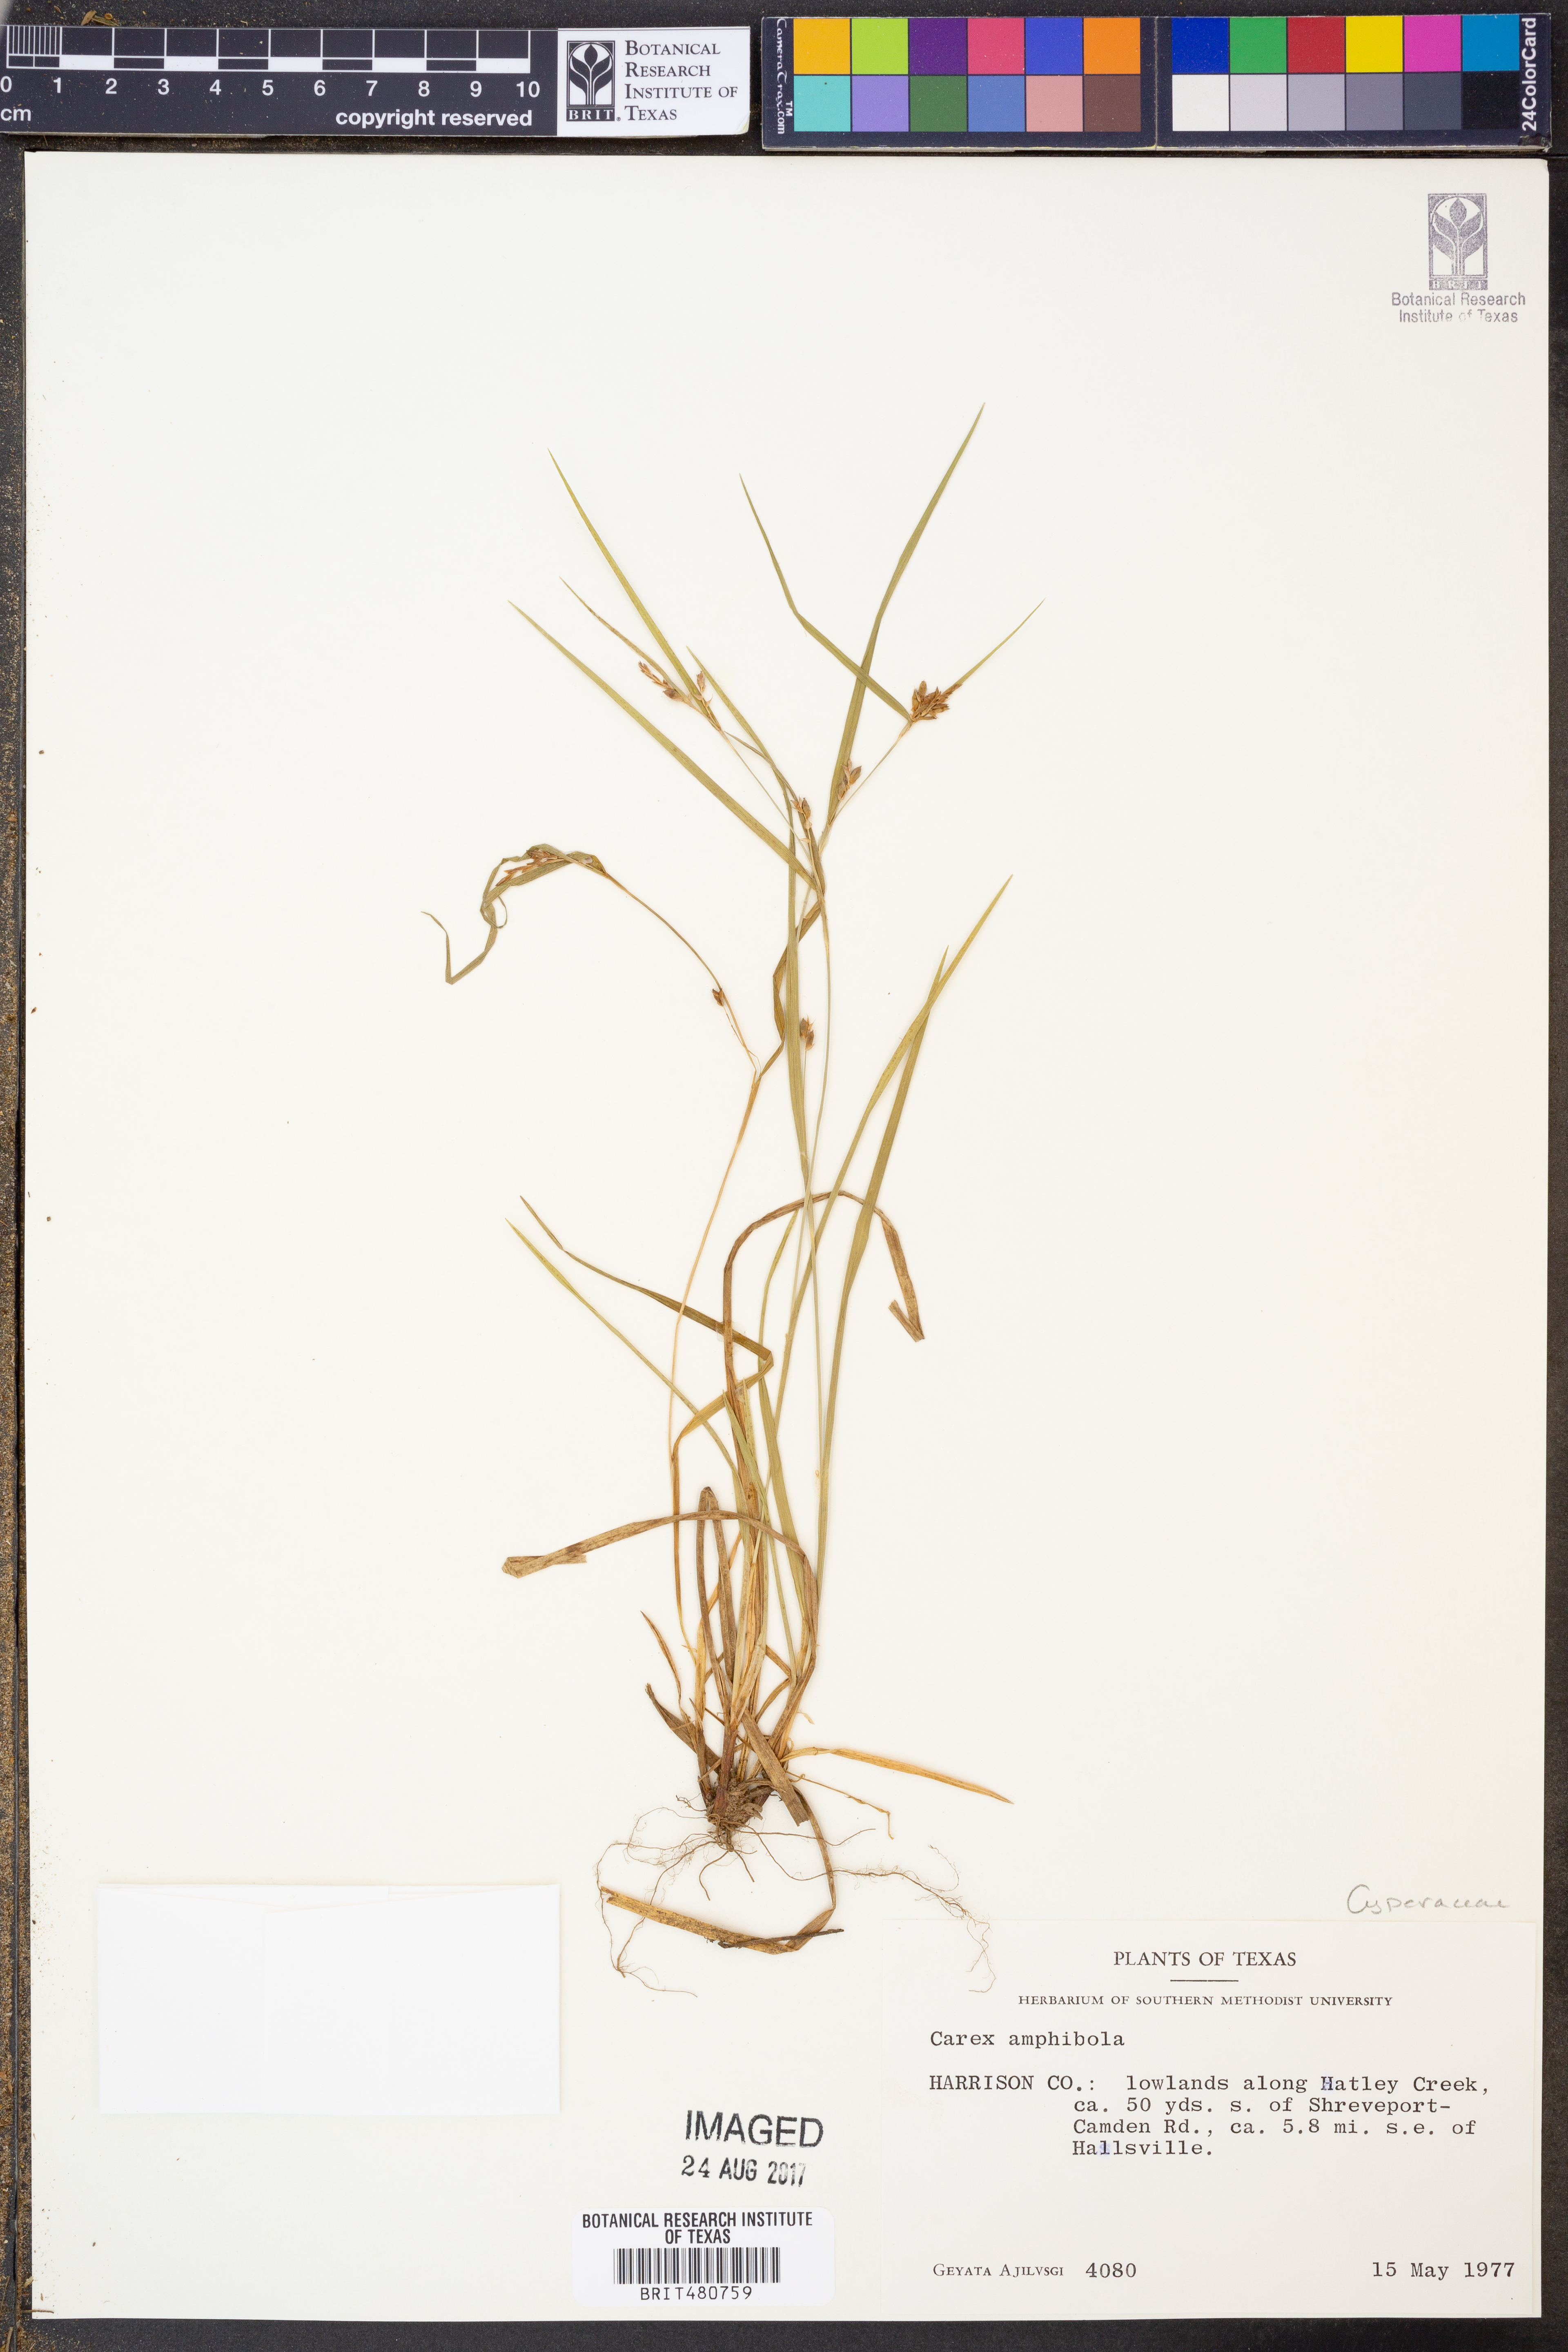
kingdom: Plantae
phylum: Tracheophyta
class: Liliopsida
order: Poales
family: Cyperaceae
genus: Carex
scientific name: Carex amphibola
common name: Amphibious sedge
